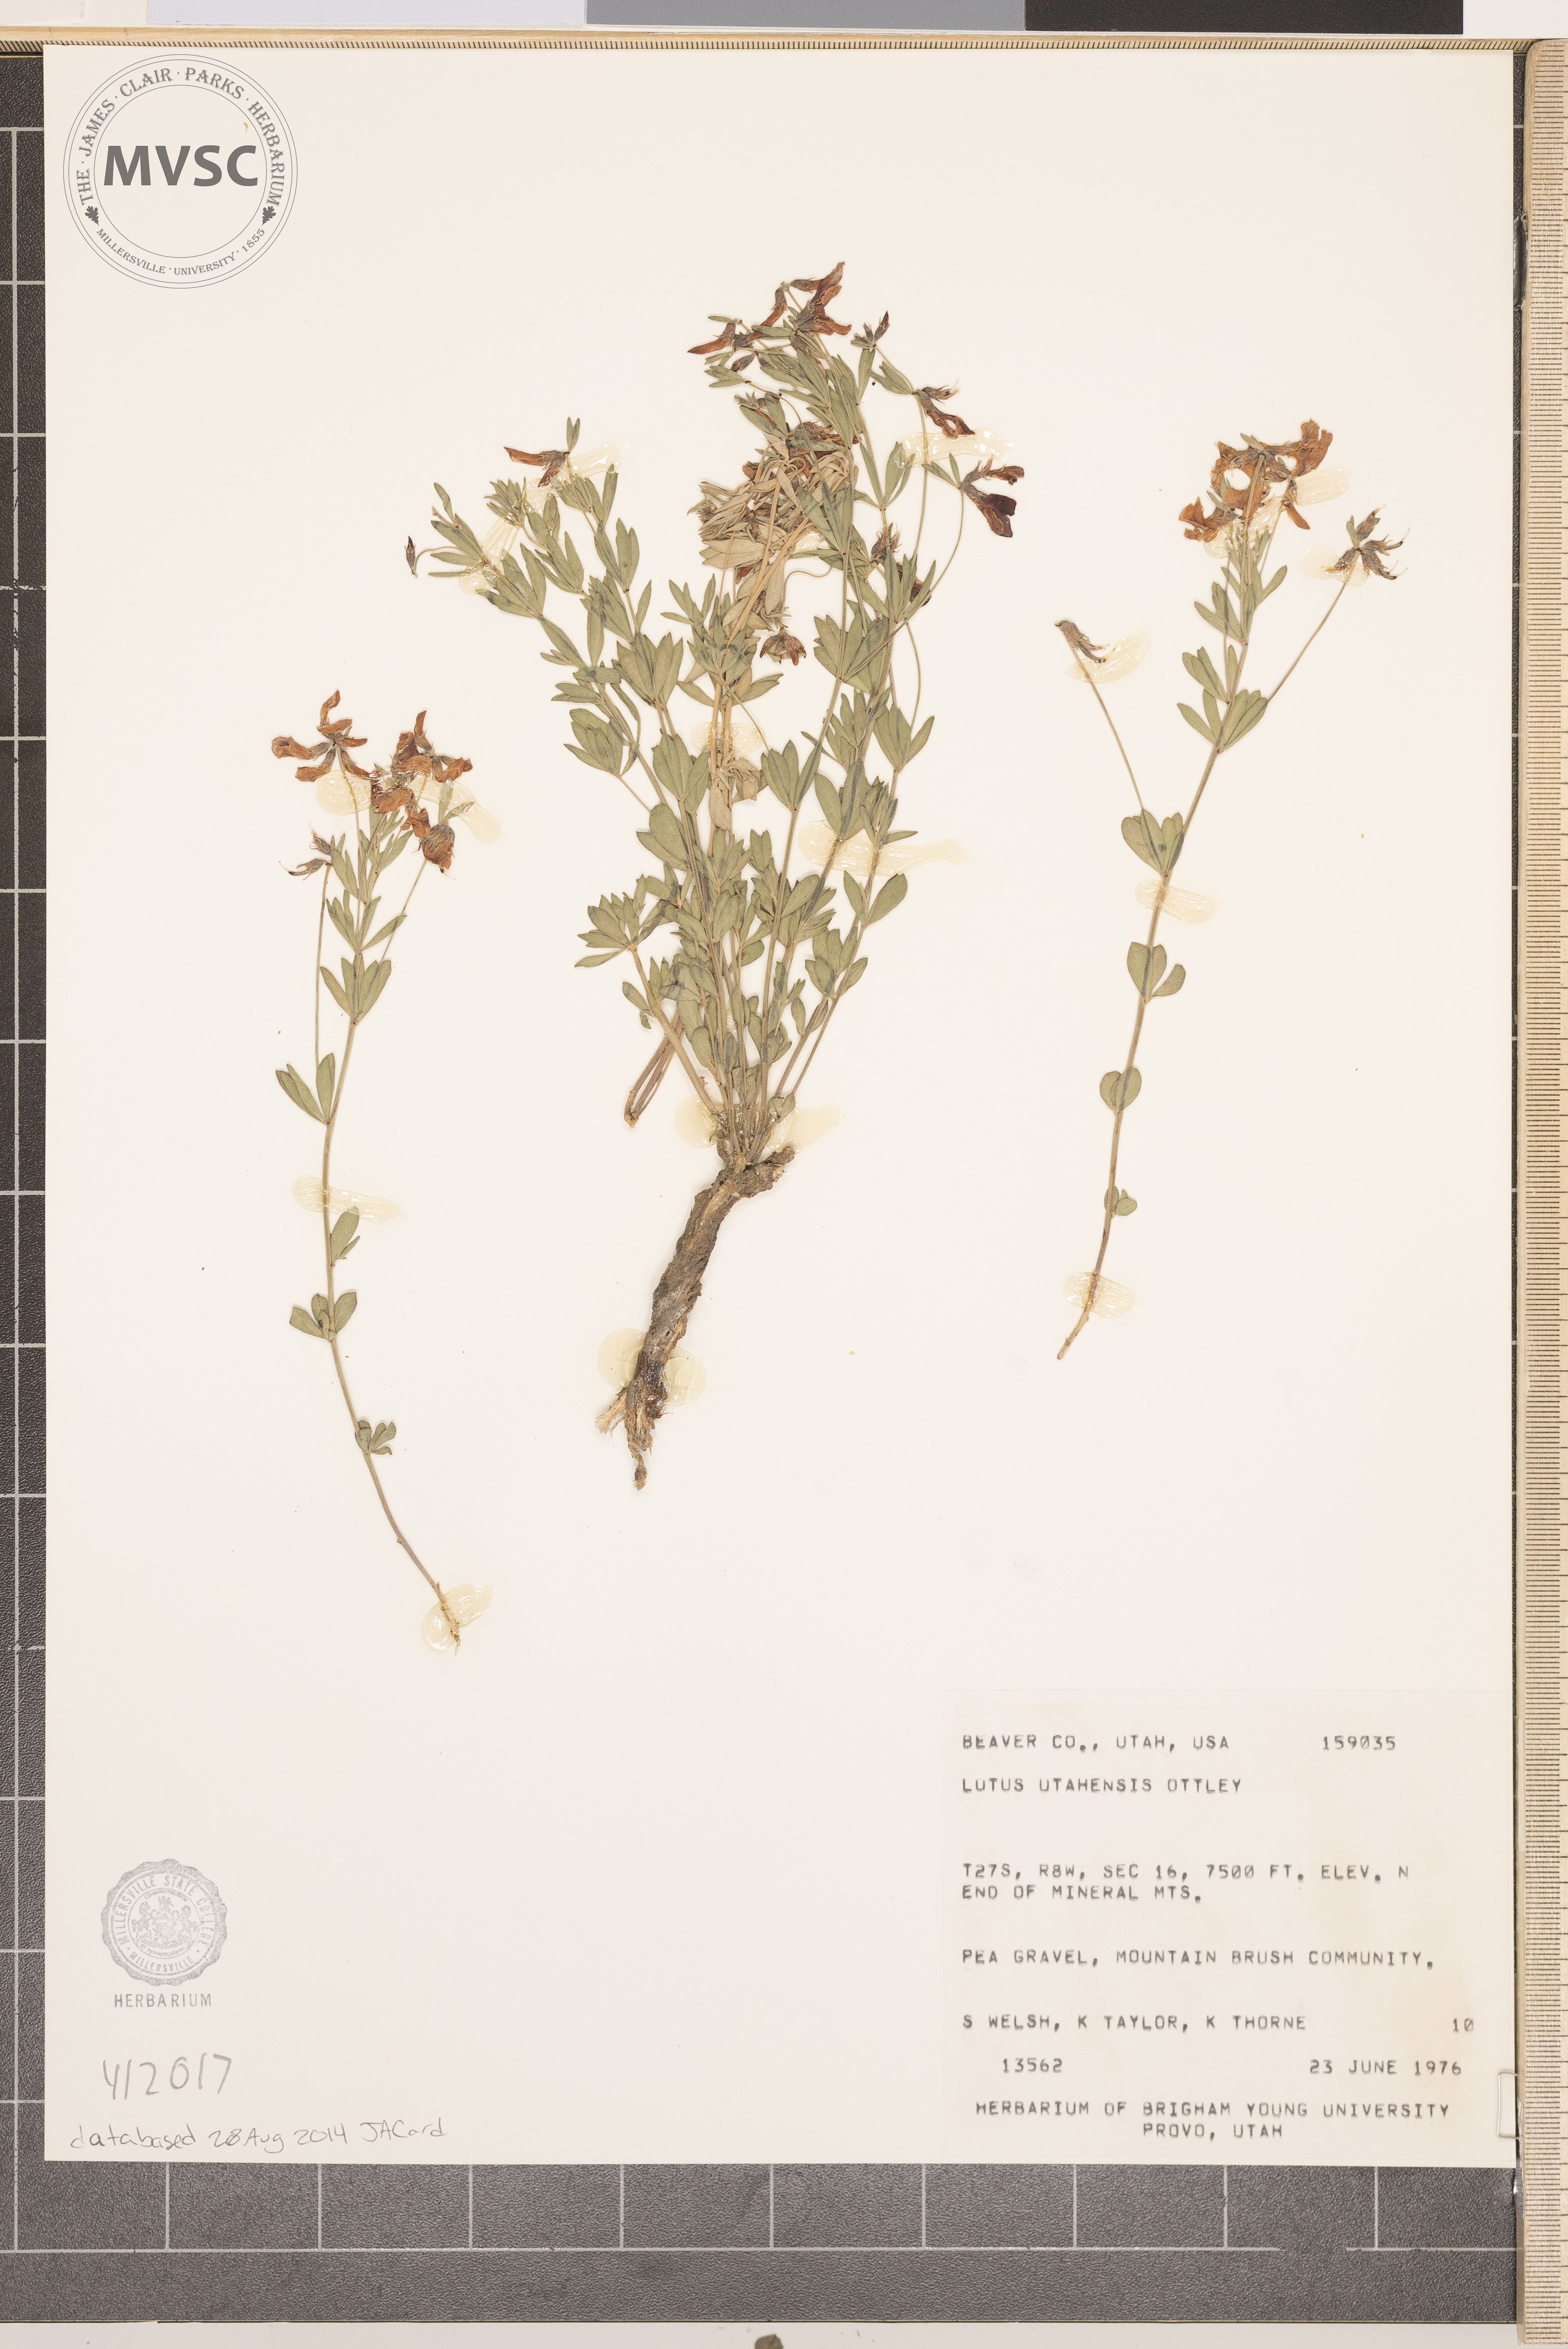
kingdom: Plantae
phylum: Tracheophyta
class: Magnoliopsida
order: Fabales
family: Fabaceae
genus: Acmispon
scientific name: Acmispon utahensis
